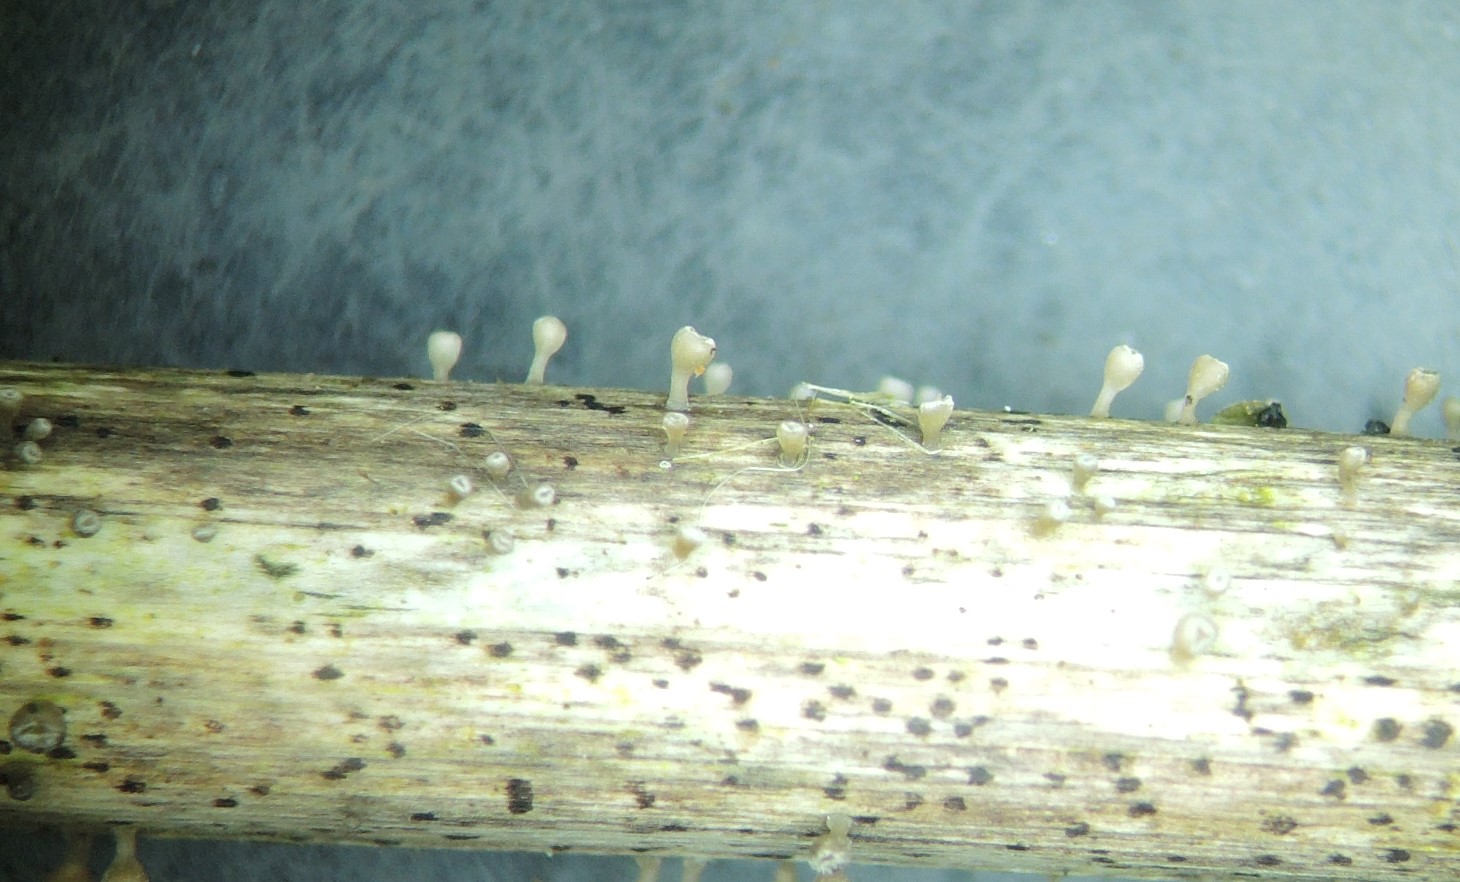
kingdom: Fungi
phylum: Ascomycota
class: Leotiomycetes
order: Helotiales
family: Helotiaceae
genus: Cyathicula
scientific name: Cyathicula cyathoidea
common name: pokal-stilkskive
